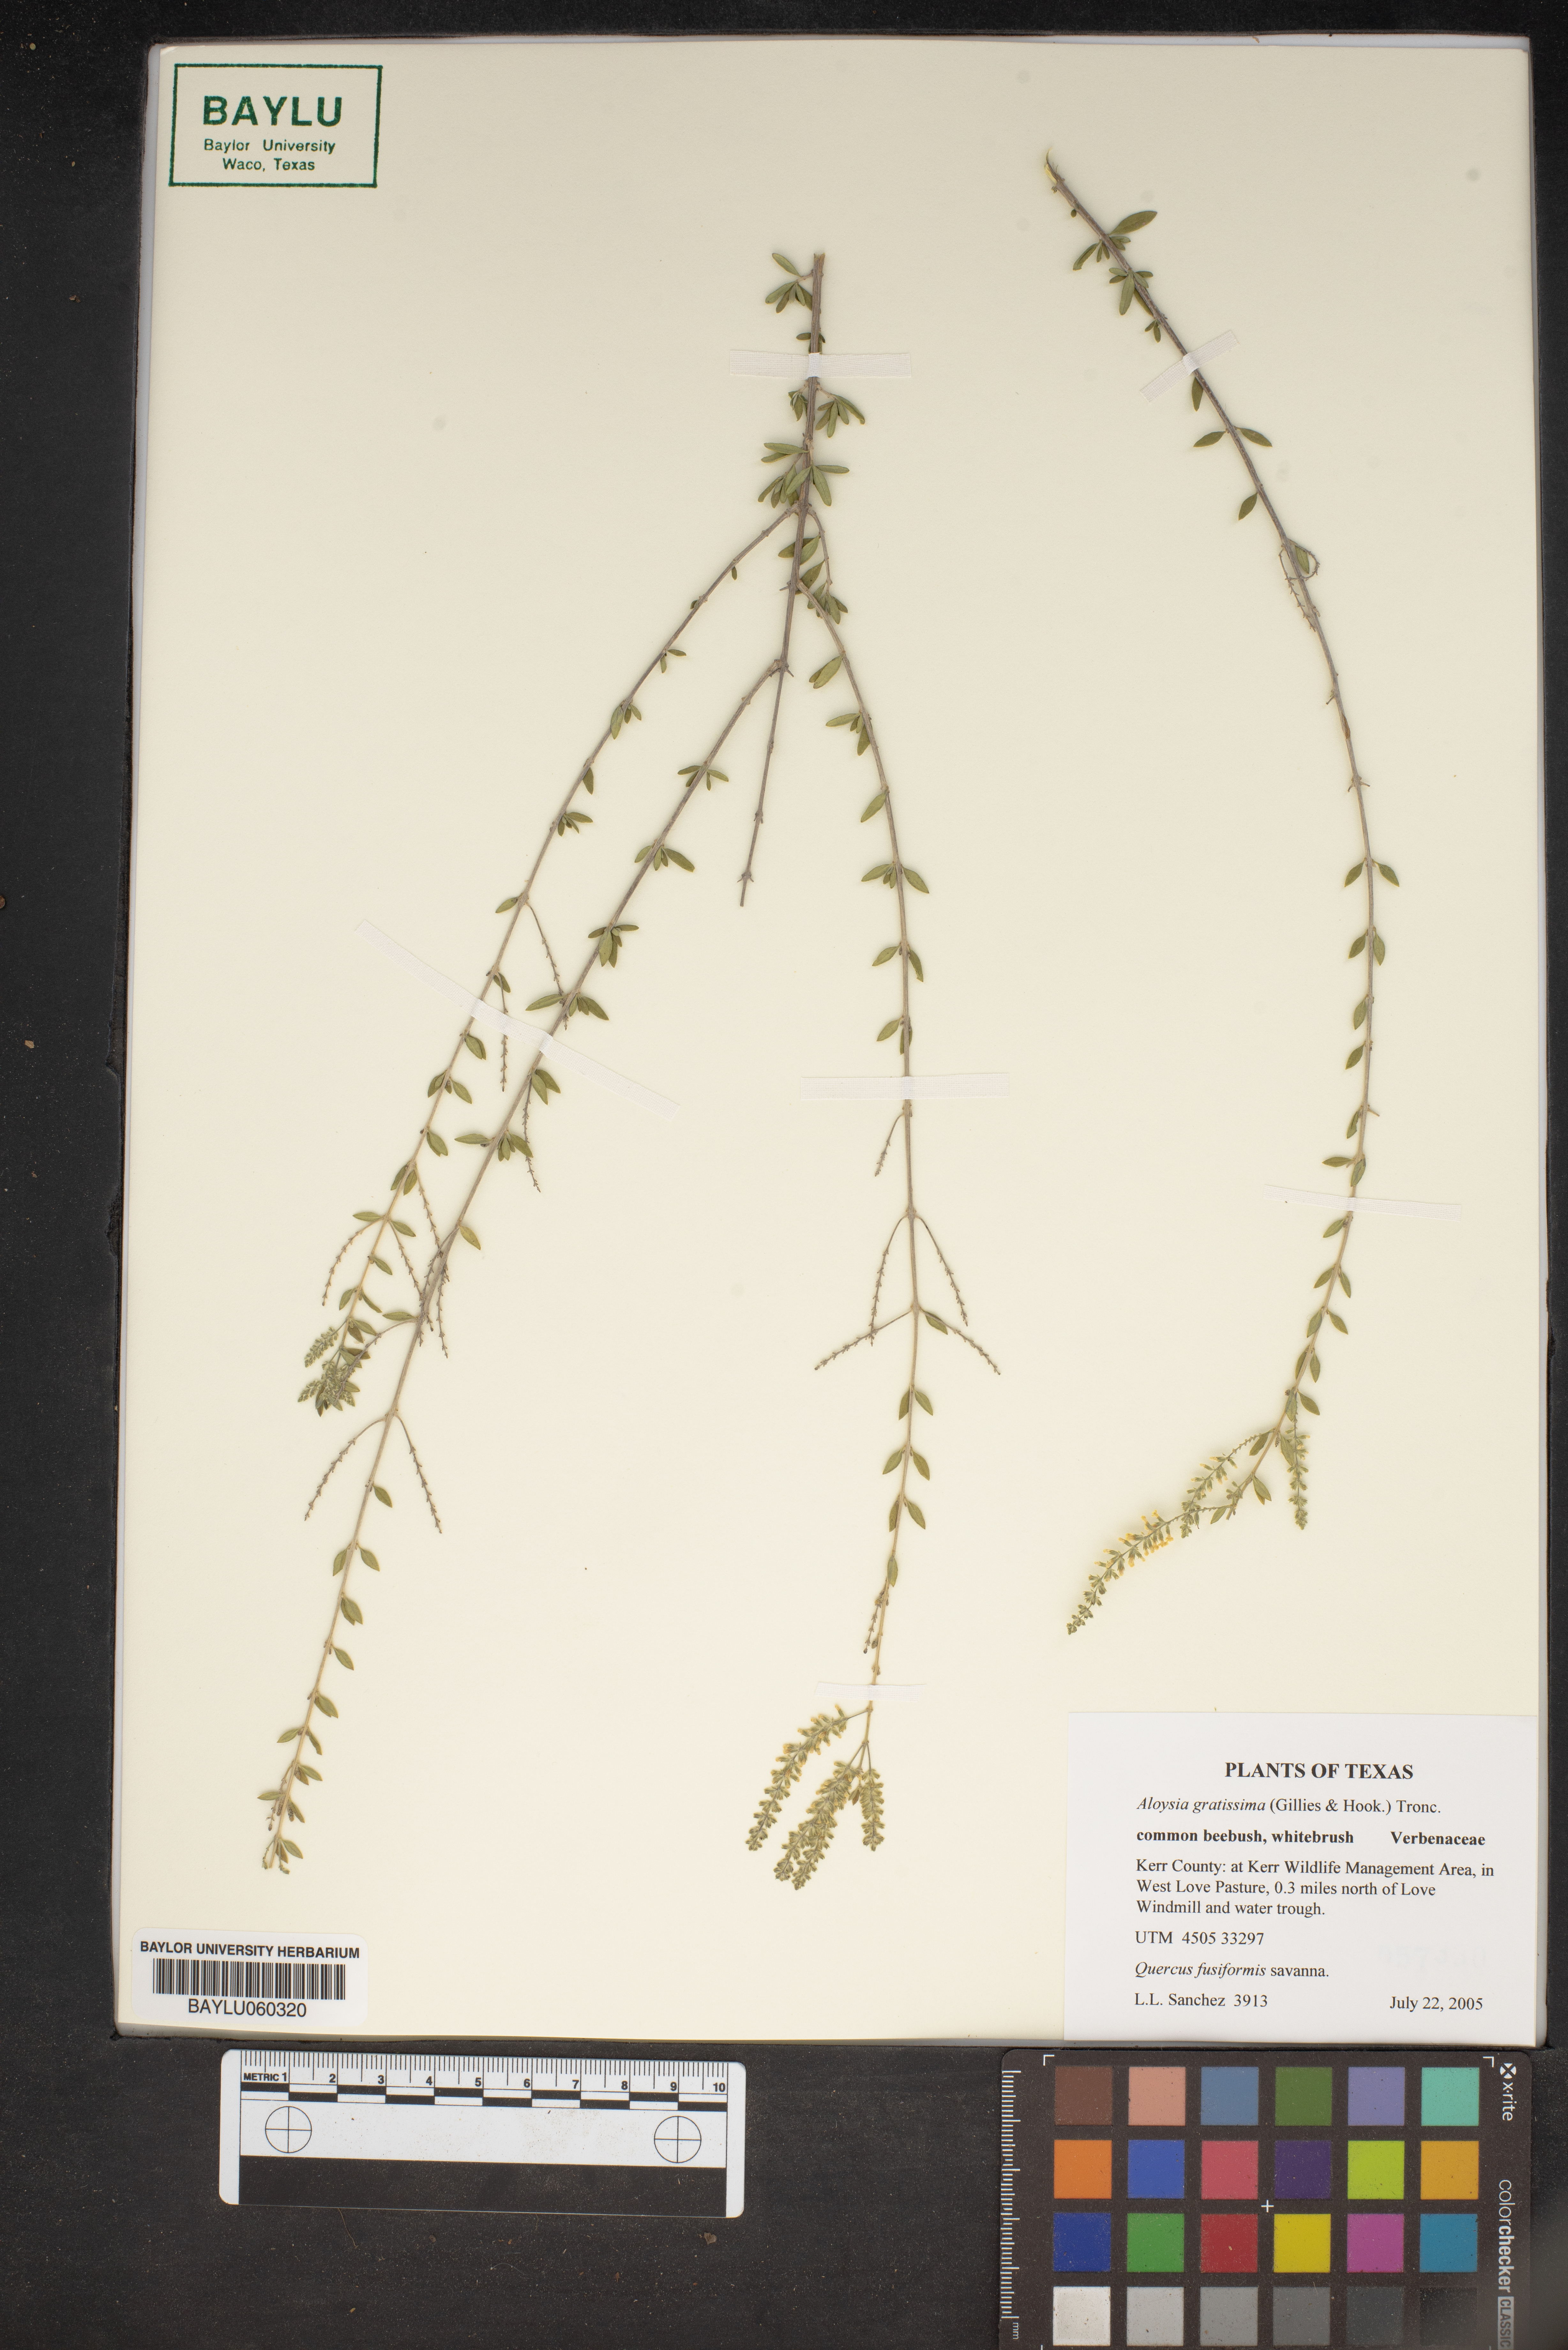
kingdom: Plantae
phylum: Tracheophyta
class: Magnoliopsida
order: Lamiales
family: Verbenaceae
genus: Aloysia
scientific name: Aloysia gratissima
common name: Common bee-brush
